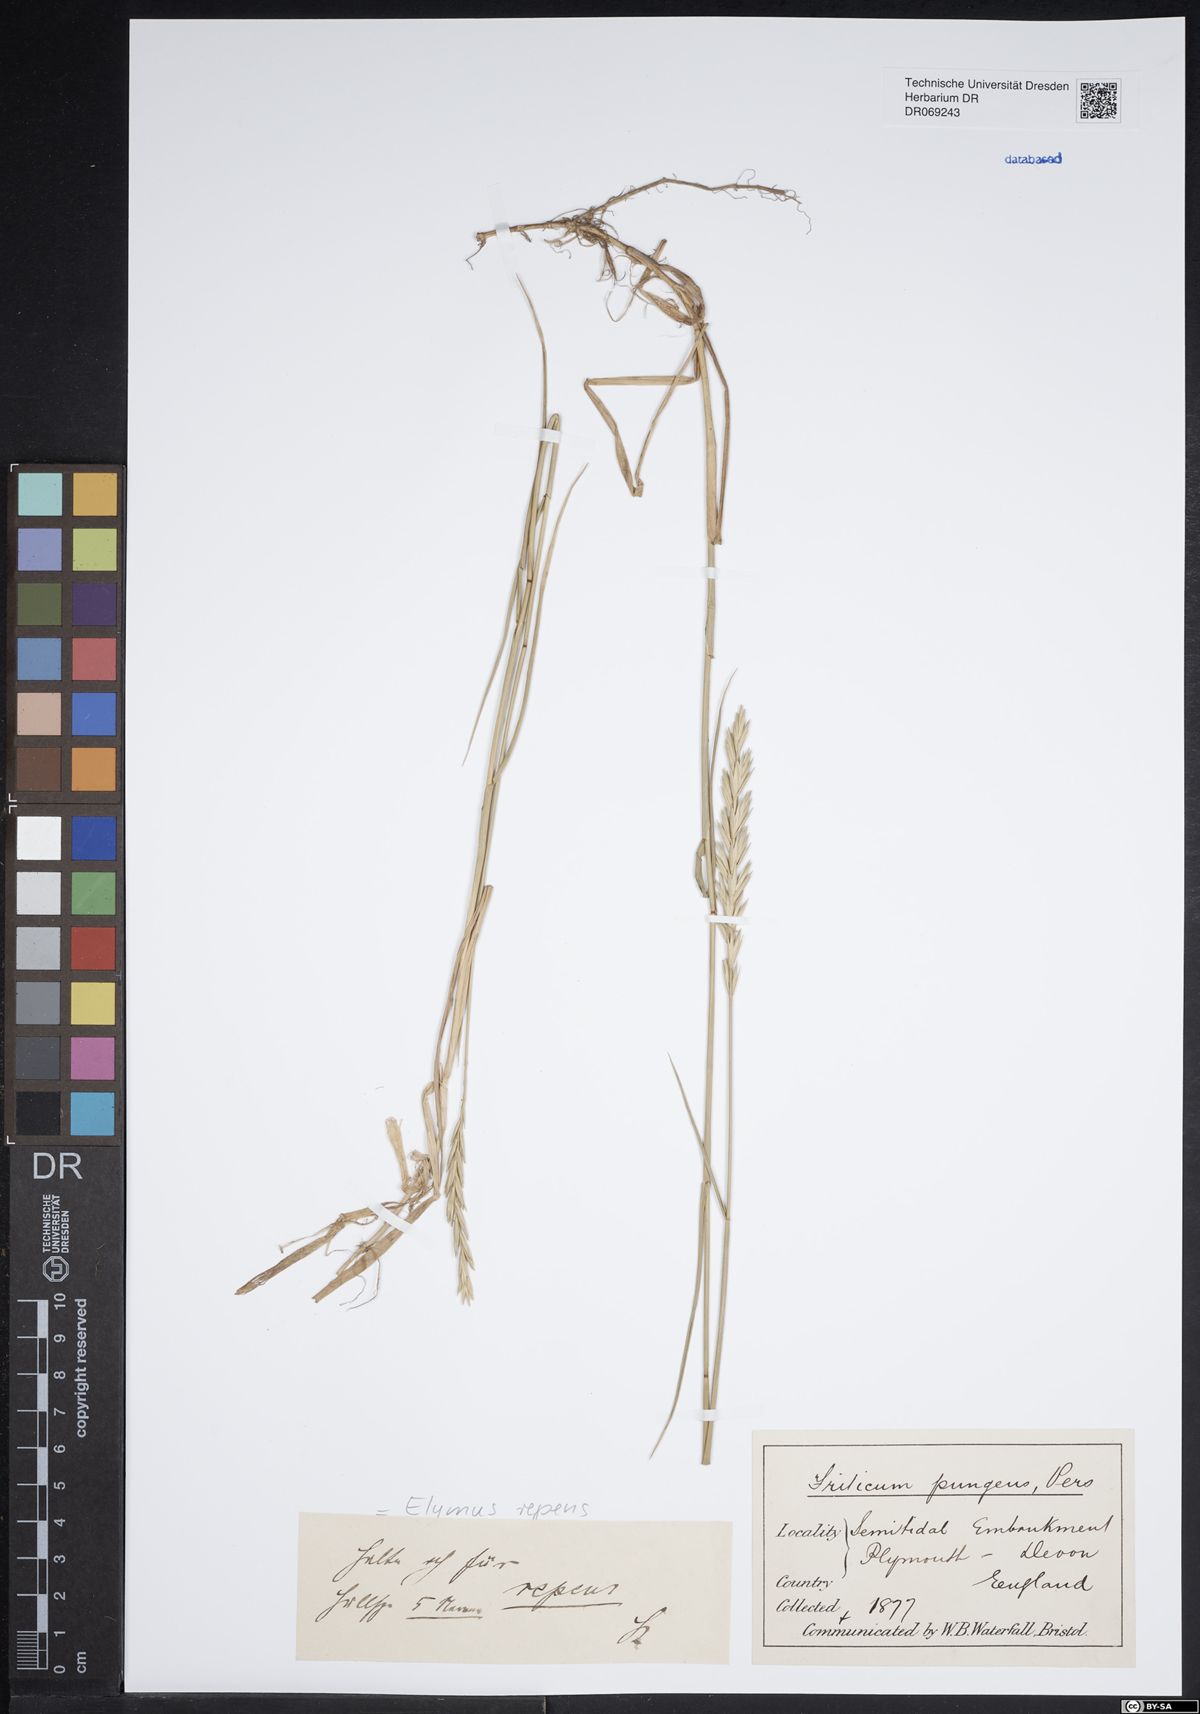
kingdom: Plantae
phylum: Tracheophyta
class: Liliopsida
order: Poales
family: Poaceae
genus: Elymus
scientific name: Elymus repens
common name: Quackgrass
